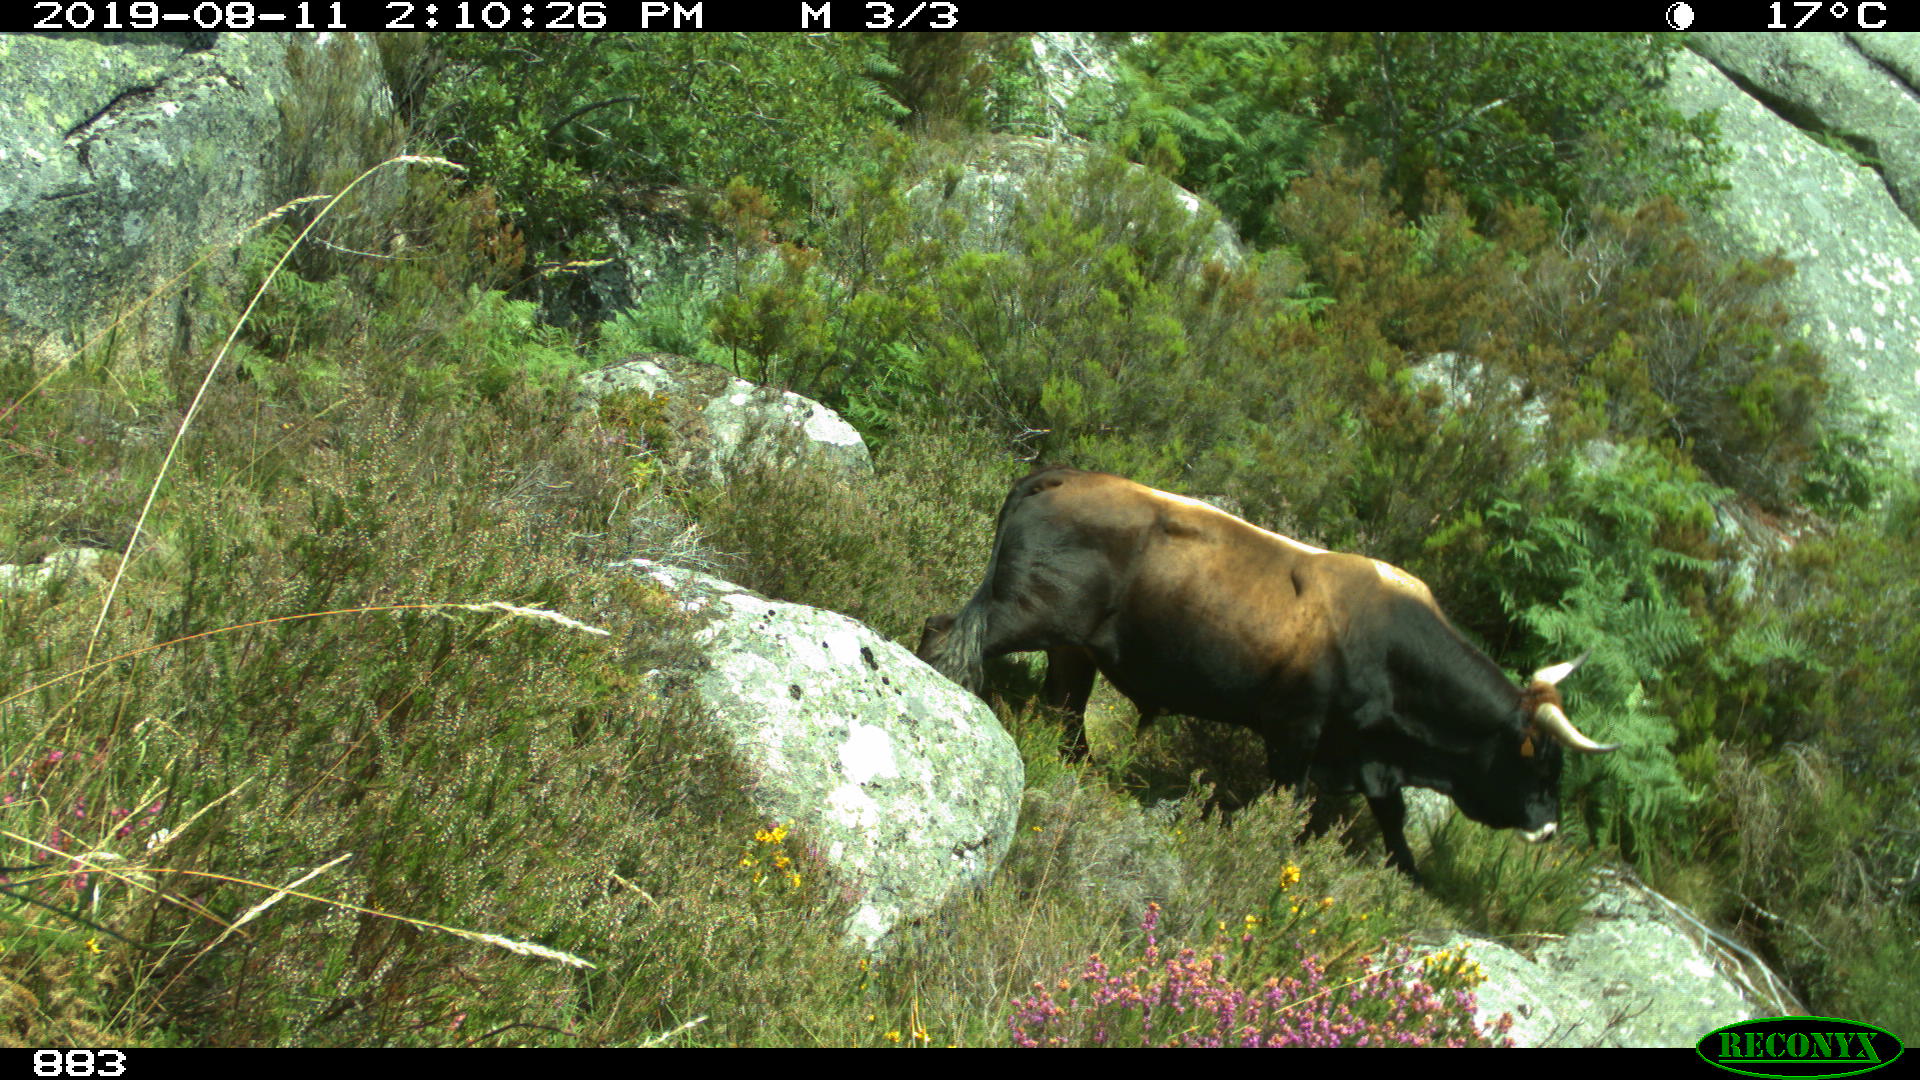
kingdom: Animalia
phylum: Chordata
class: Mammalia
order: Artiodactyla
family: Bovidae
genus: Bos
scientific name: Bos taurus
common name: Domesticated cattle
